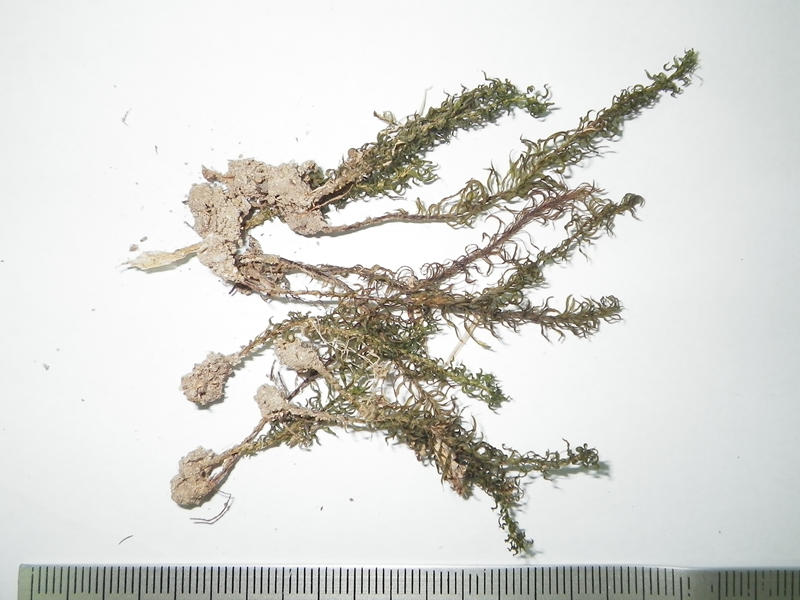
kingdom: Plantae
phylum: Bryophyta
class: Polytrichopsida
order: Polytrichales
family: Polytrichaceae
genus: Pogonatum
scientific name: Pogonatum proliferum
